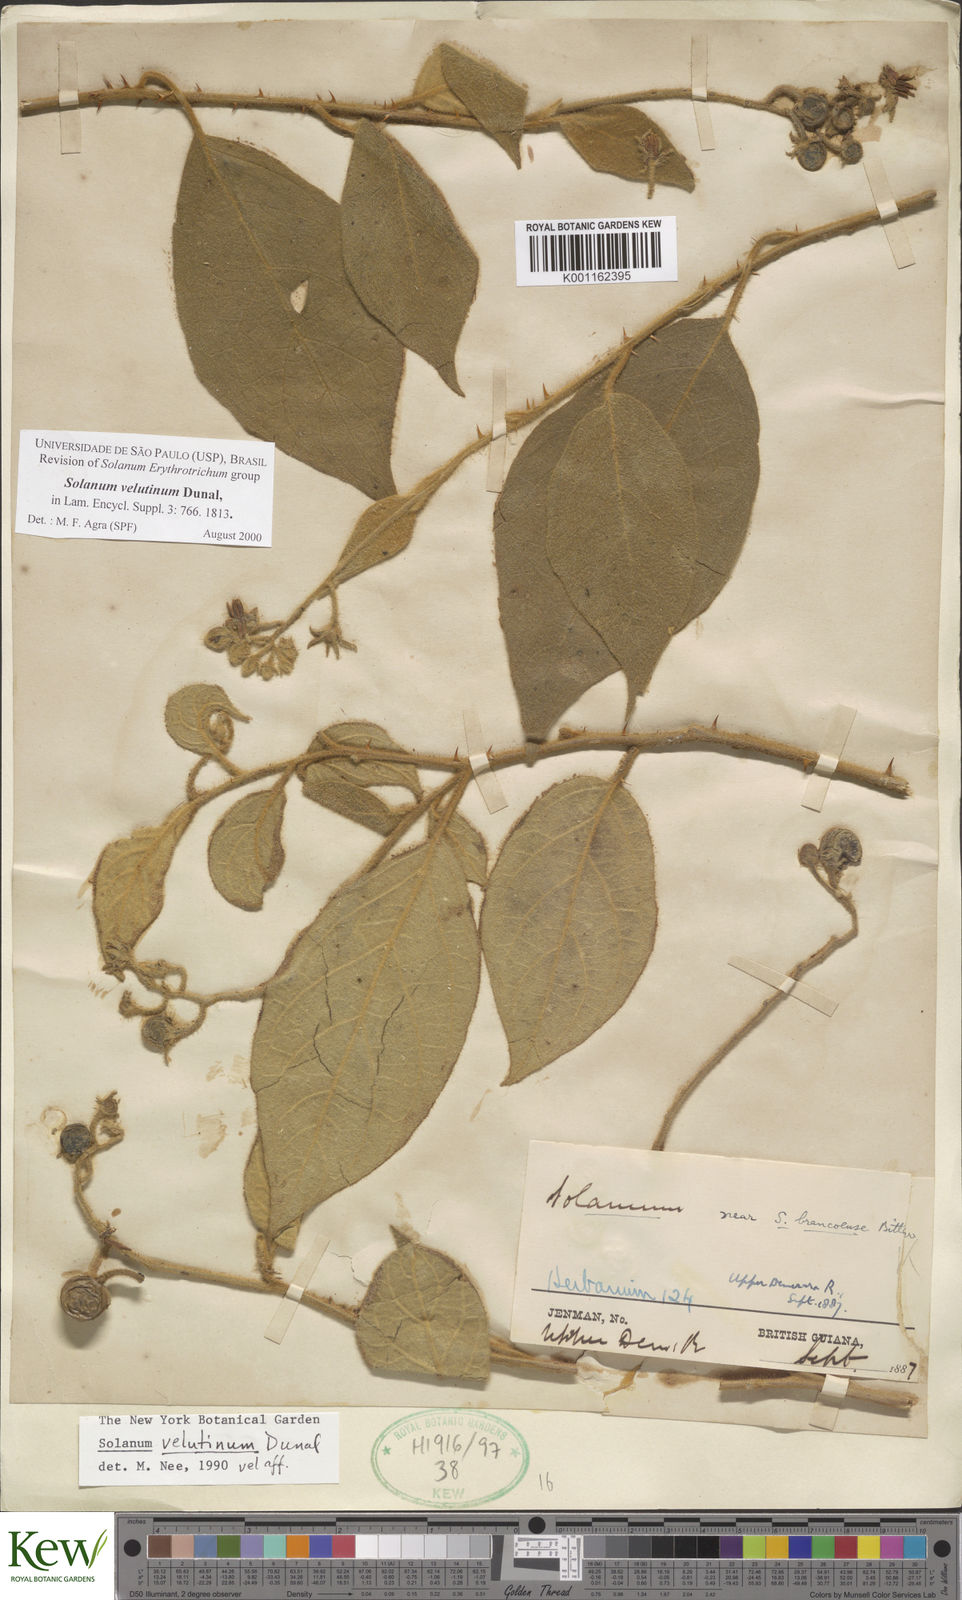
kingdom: Plantae
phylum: Tracheophyta
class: Magnoliopsida
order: Solanales
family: Solanaceae
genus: Solanum
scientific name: Solanum velutinum
